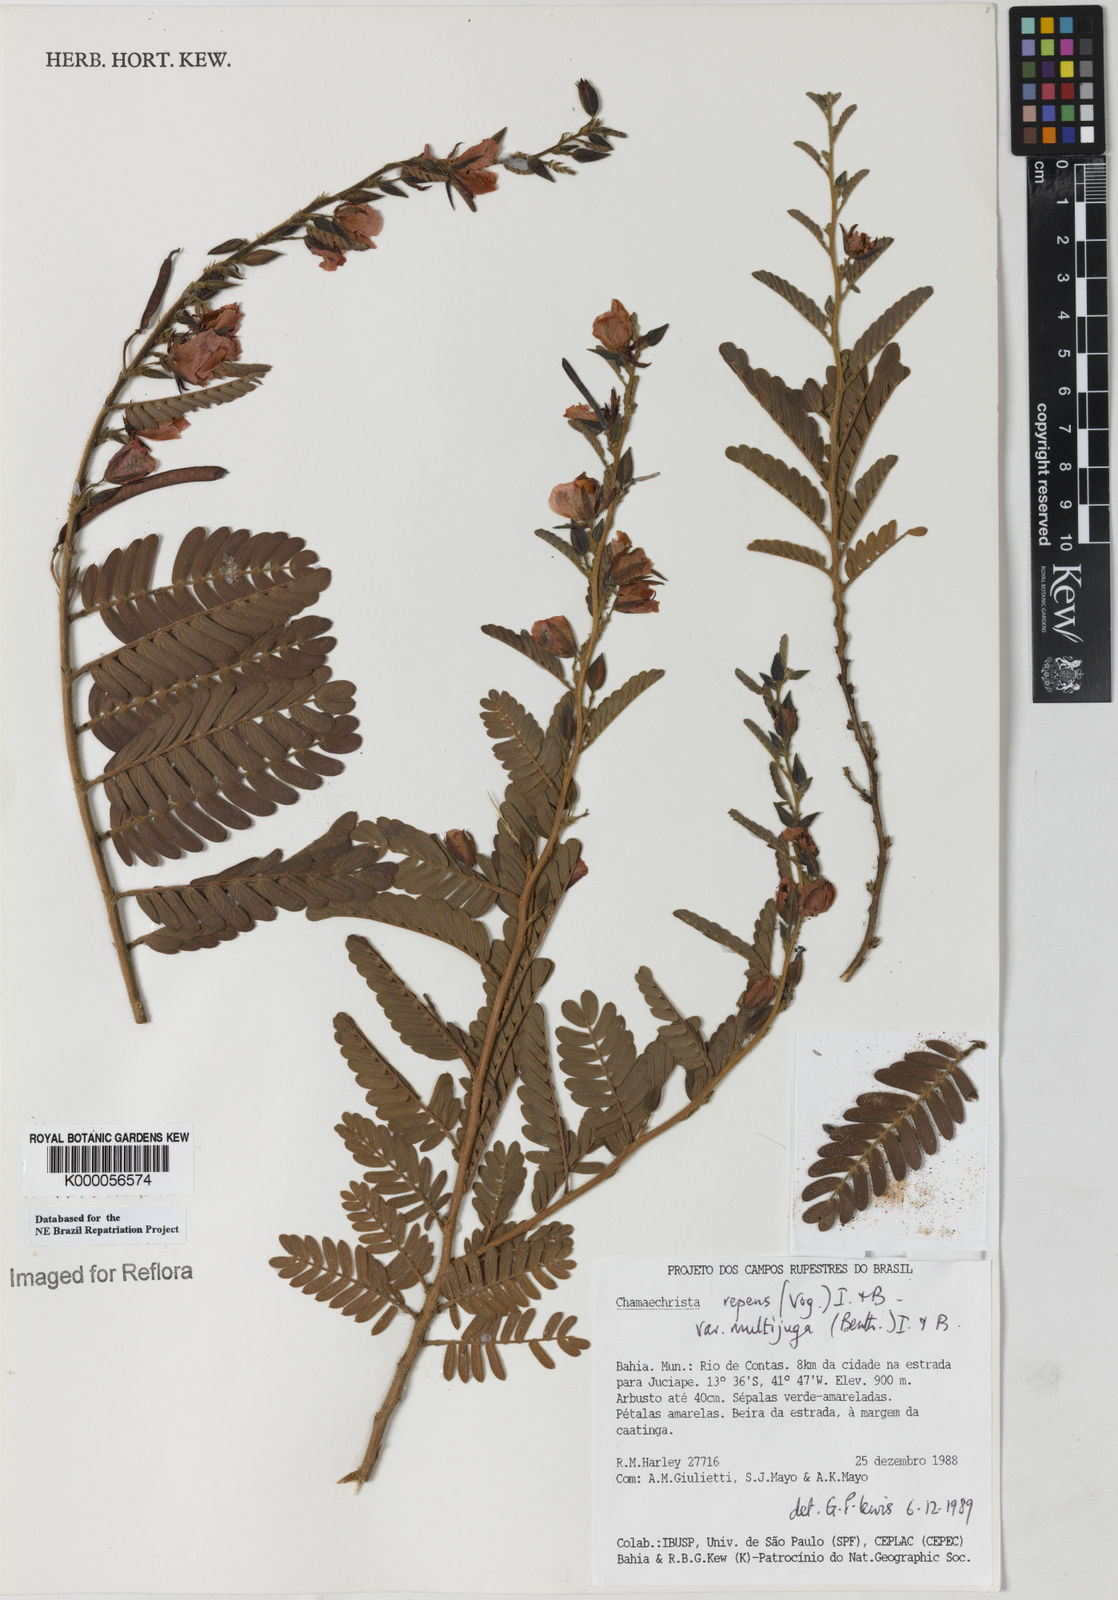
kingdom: Plantae
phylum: Tracheophyta
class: Magnoliopsida
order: Fabales
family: Fabaceae
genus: Chamaecrista
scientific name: Chamaecrista repens
